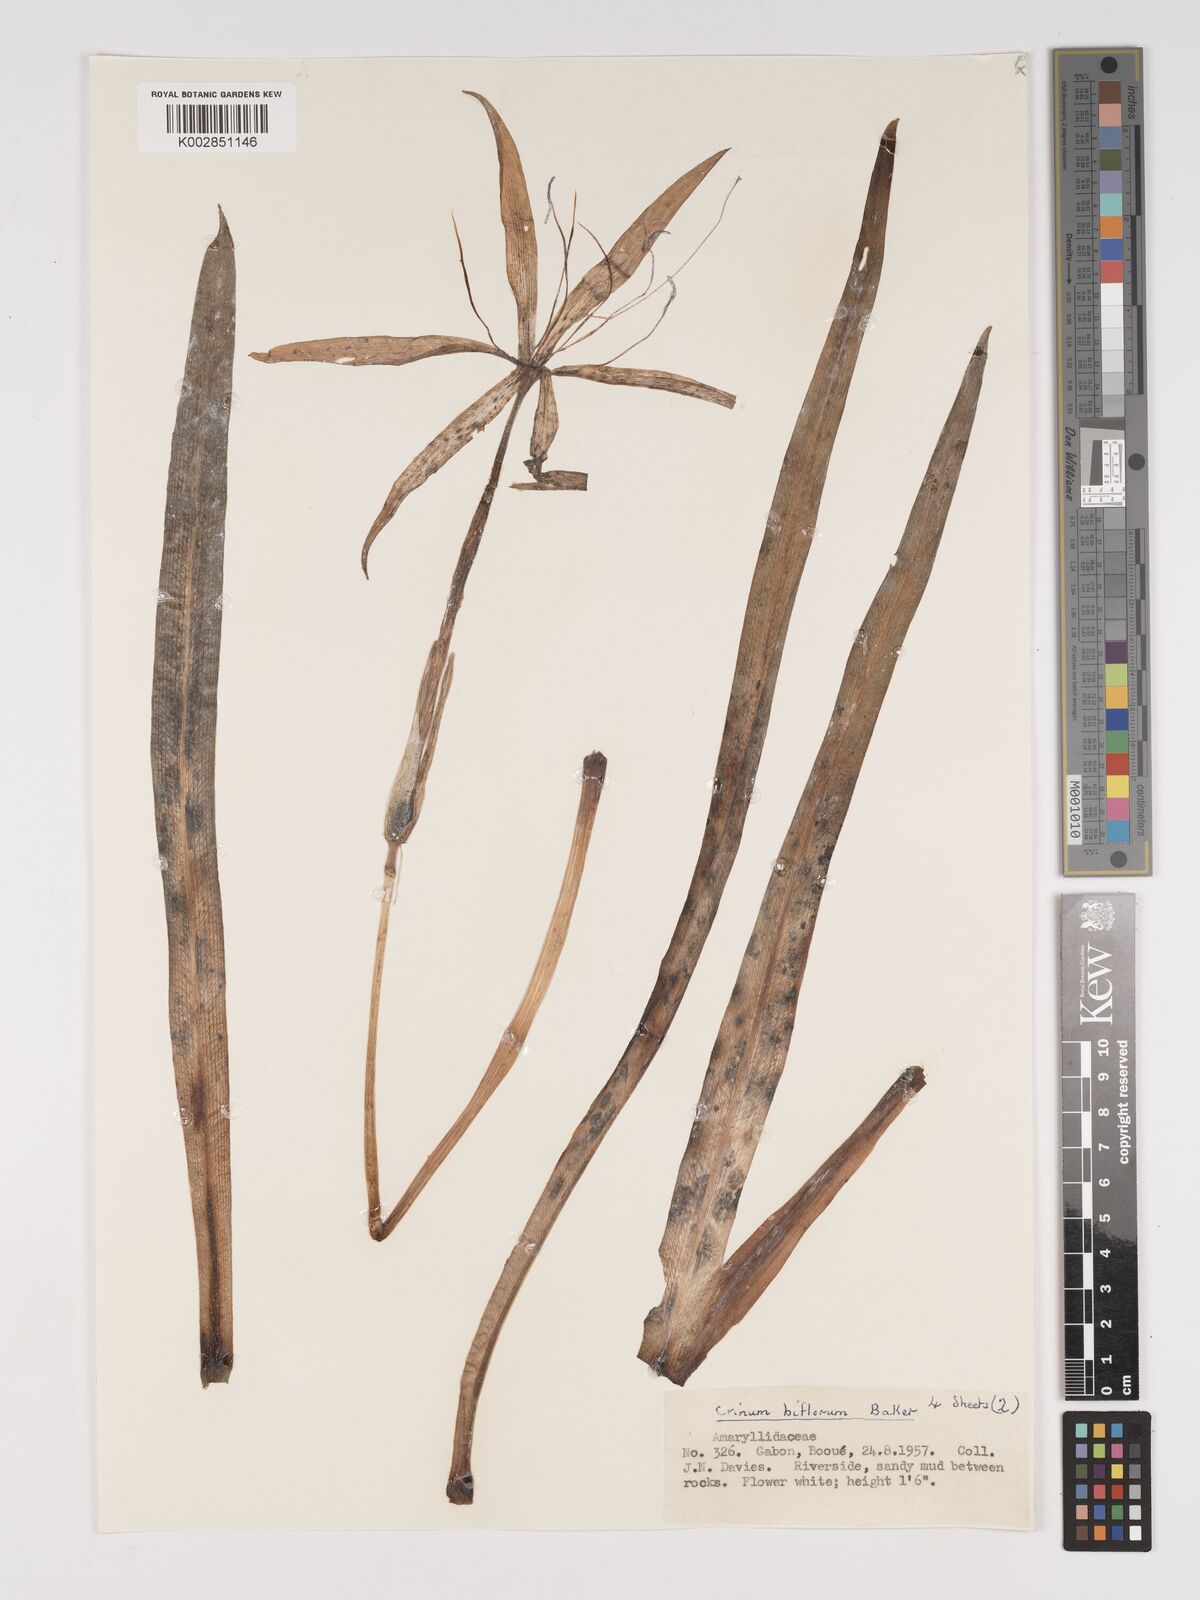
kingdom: Plantae
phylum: Tracheophyta
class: Liliopsida
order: Asparagales
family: Amaryllidaceae
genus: Crinum
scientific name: Crinum nordaliae
